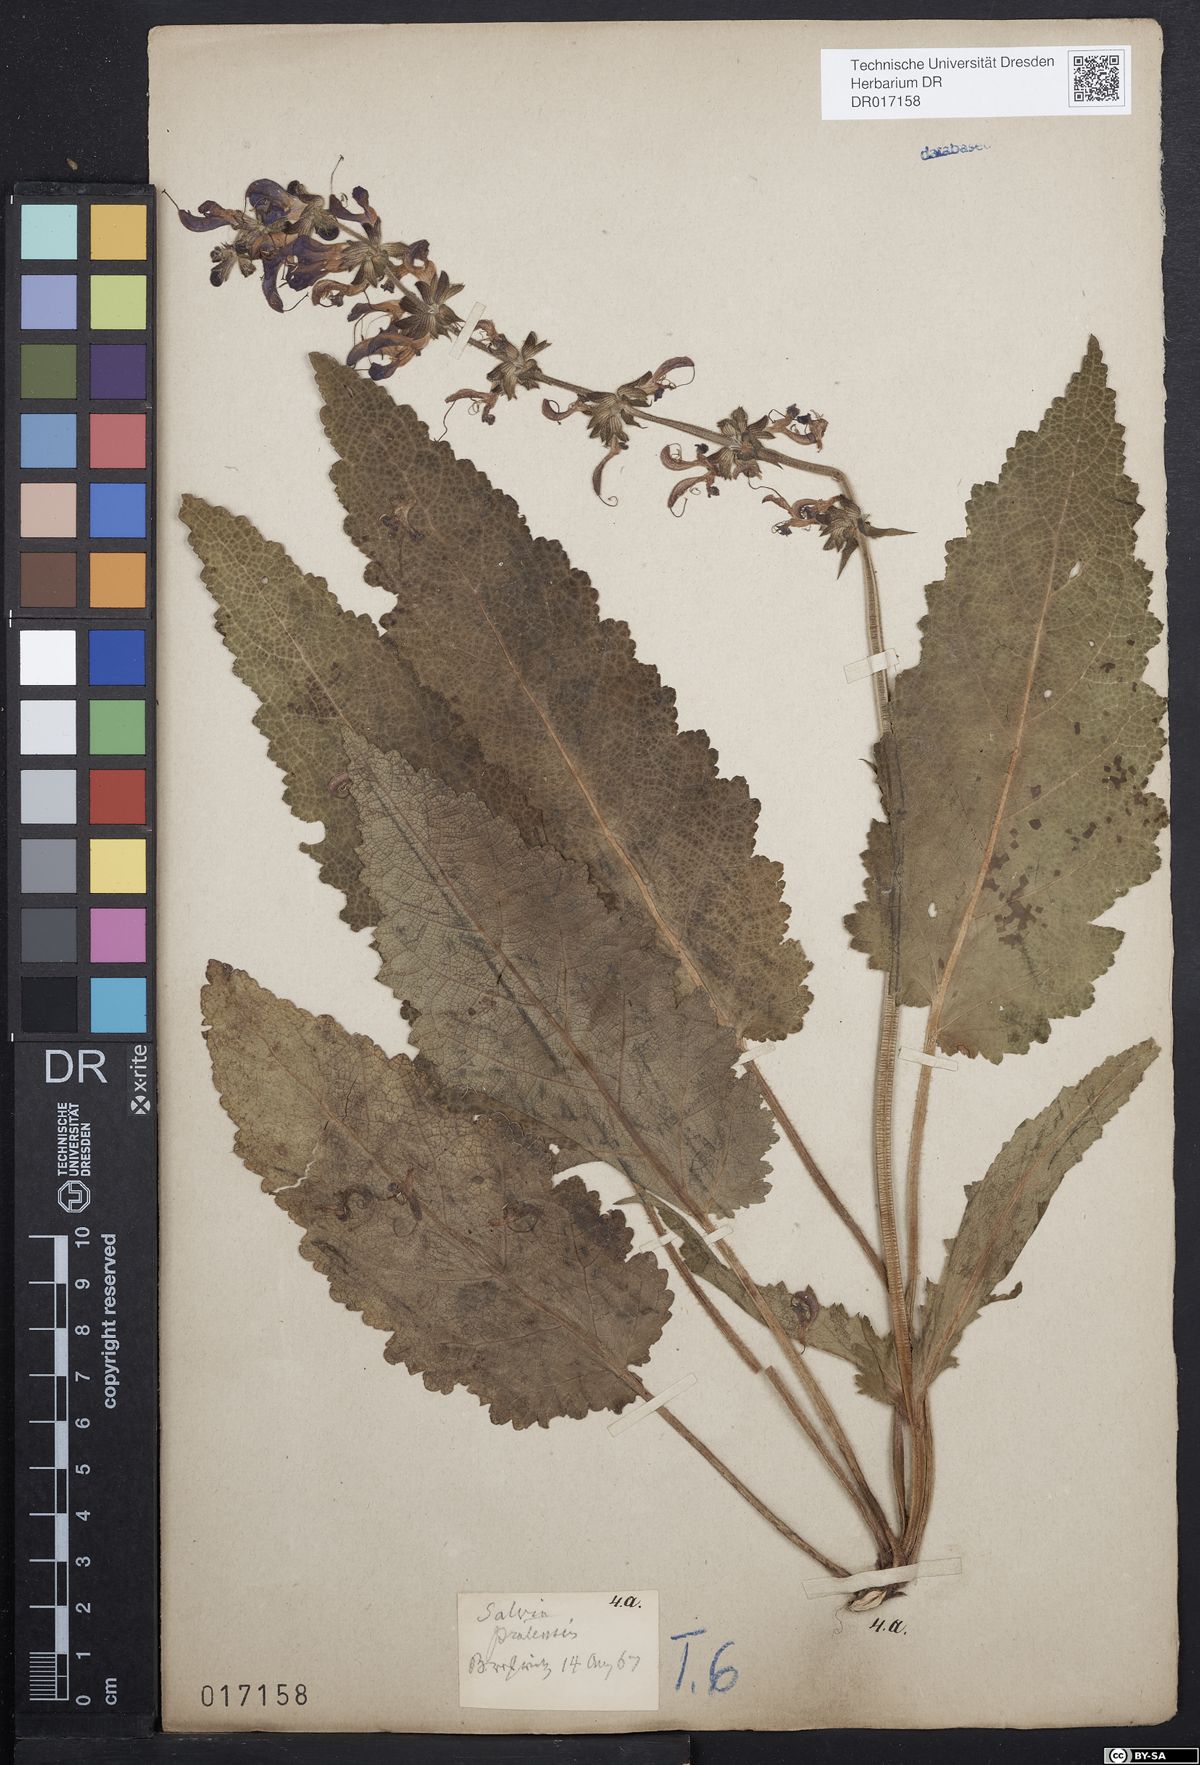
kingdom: Plantae
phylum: Tracheophyta
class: Magnoliopsida
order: Lamiales
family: Lamiaceae
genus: Salvia
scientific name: Salvia pratensis
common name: Meadow sage
